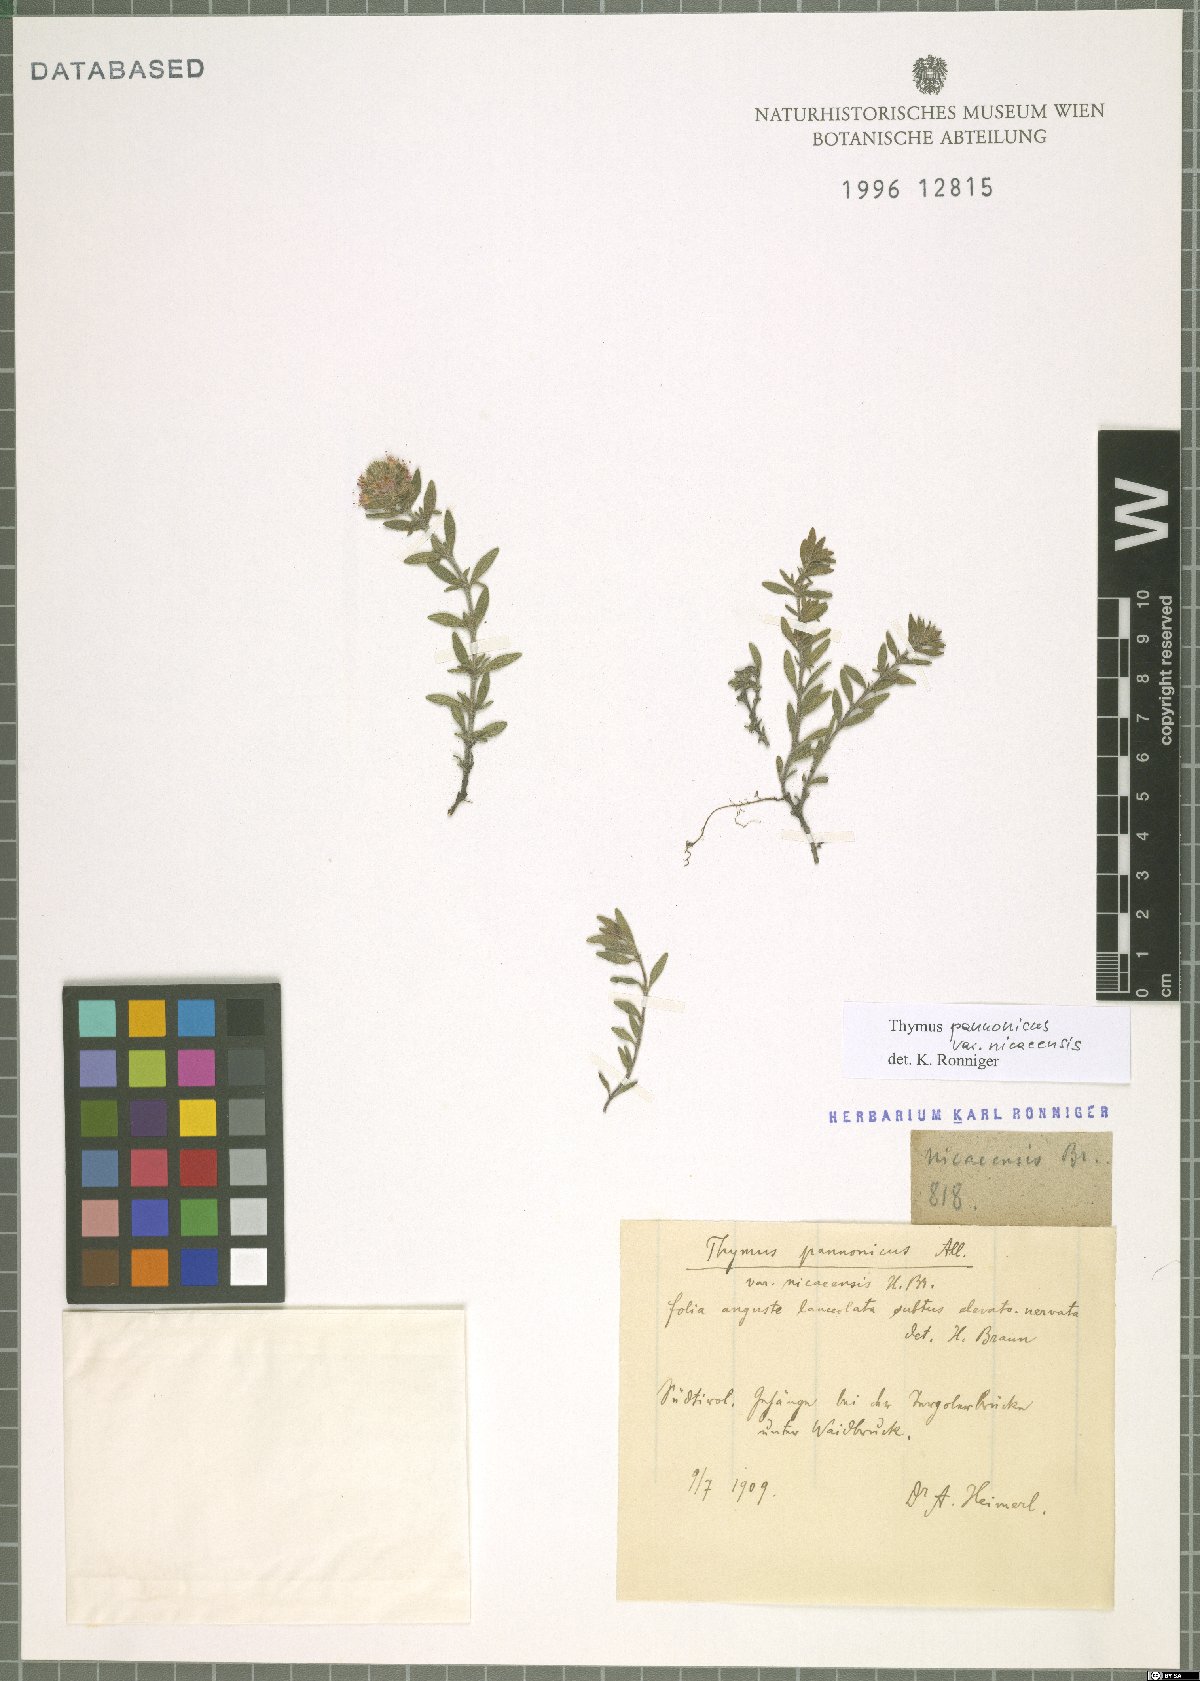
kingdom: Plantae
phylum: Tracheophyta
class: Magnoliopsida
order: Lamiales
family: Lamiaceae
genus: Thymus
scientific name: Thymus oenipontanus
